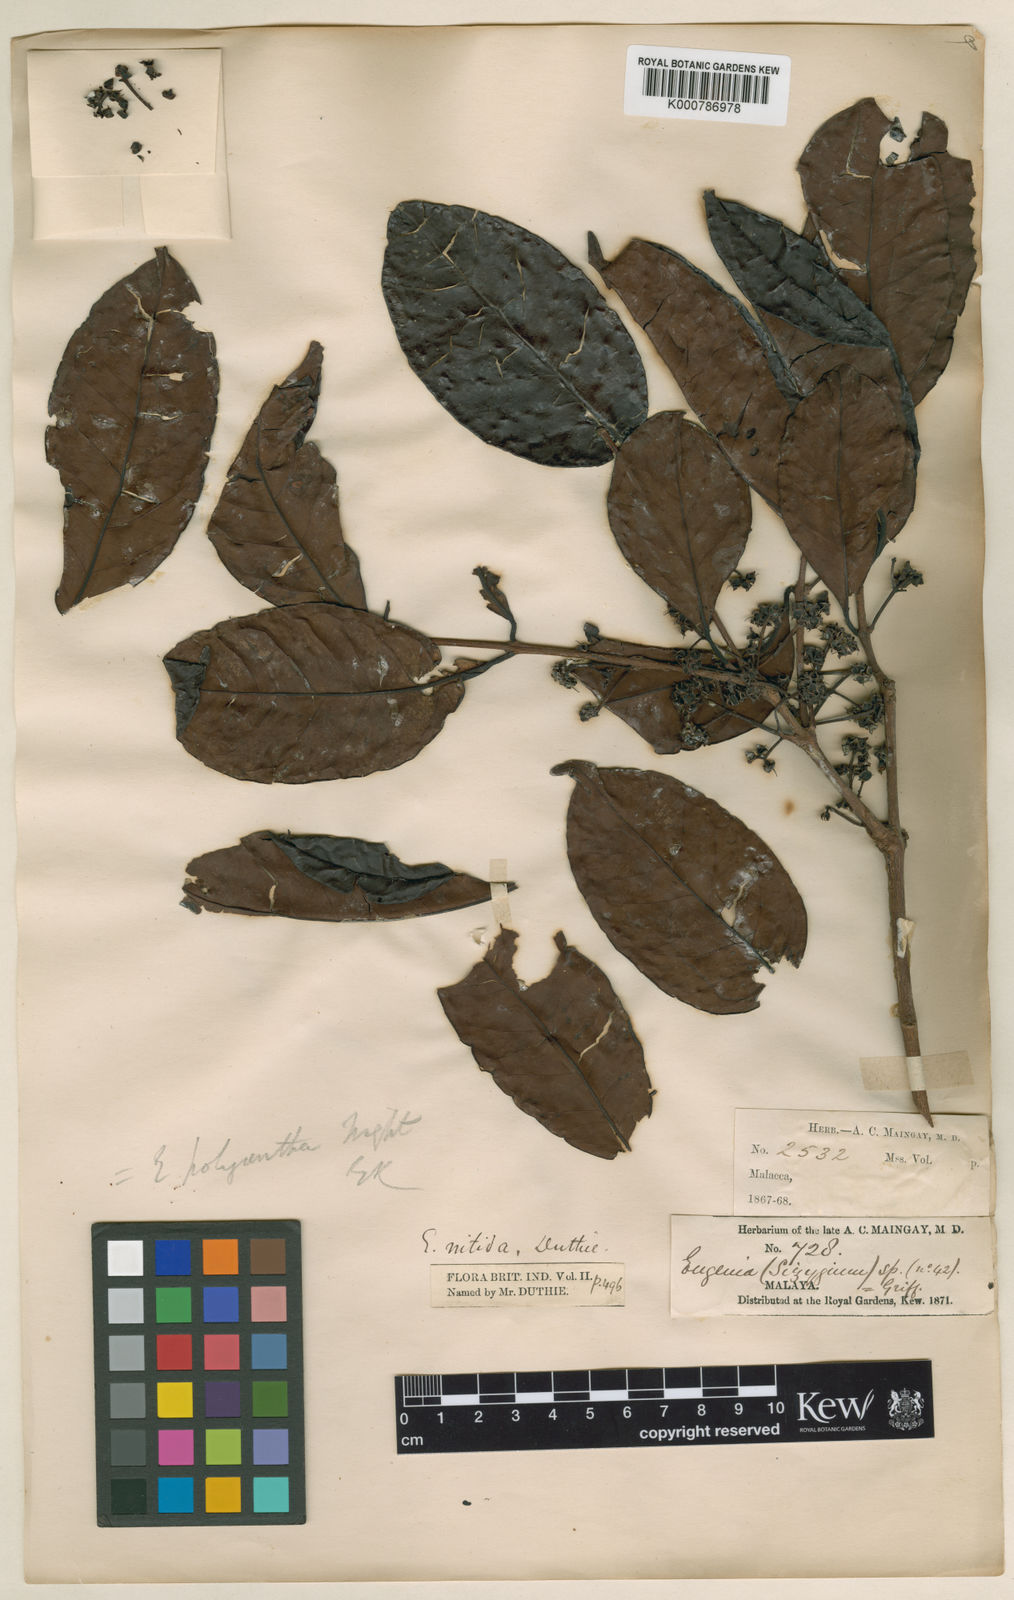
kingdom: Plantae
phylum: Tracheophyta
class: Magnoliopsida
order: Myrtales
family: Myrtaceae
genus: Syzygium
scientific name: Syzygium polyanthum
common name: Indonesian bayleaf
